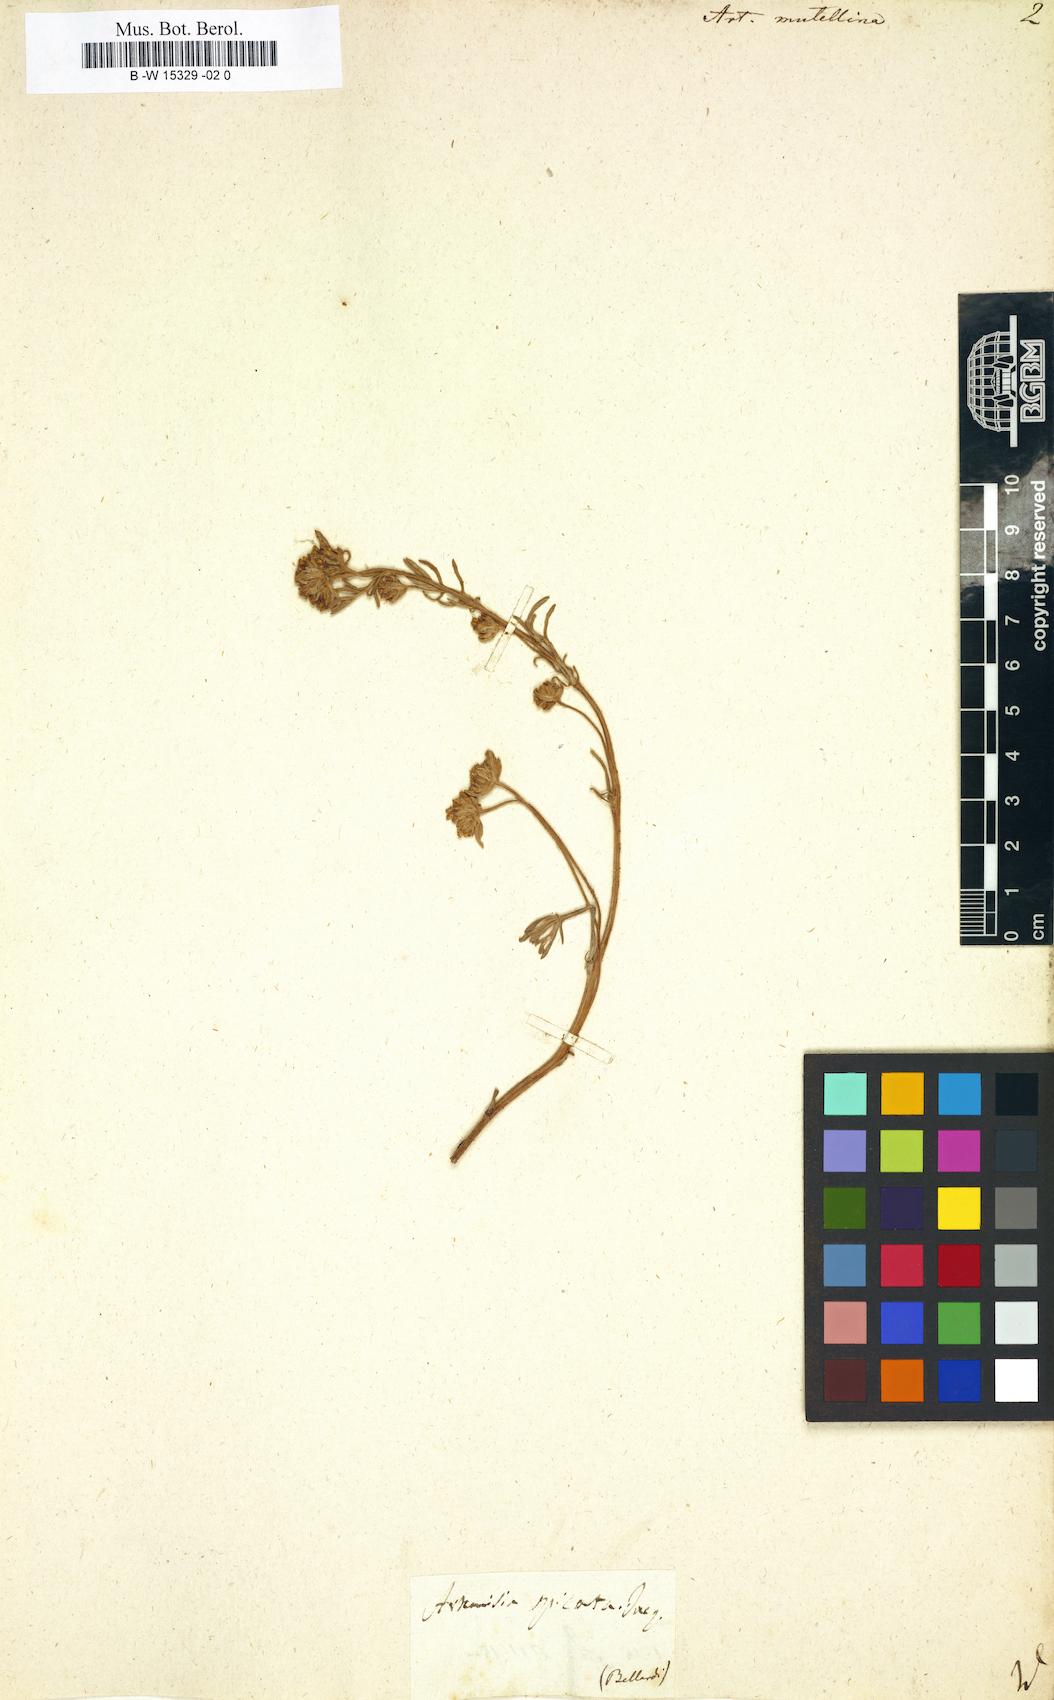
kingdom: Plantae
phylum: Tracheophyta
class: Magnoliopsida
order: Asterales
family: Asteraceae
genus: Artemisia
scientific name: Artemisia mutellina
